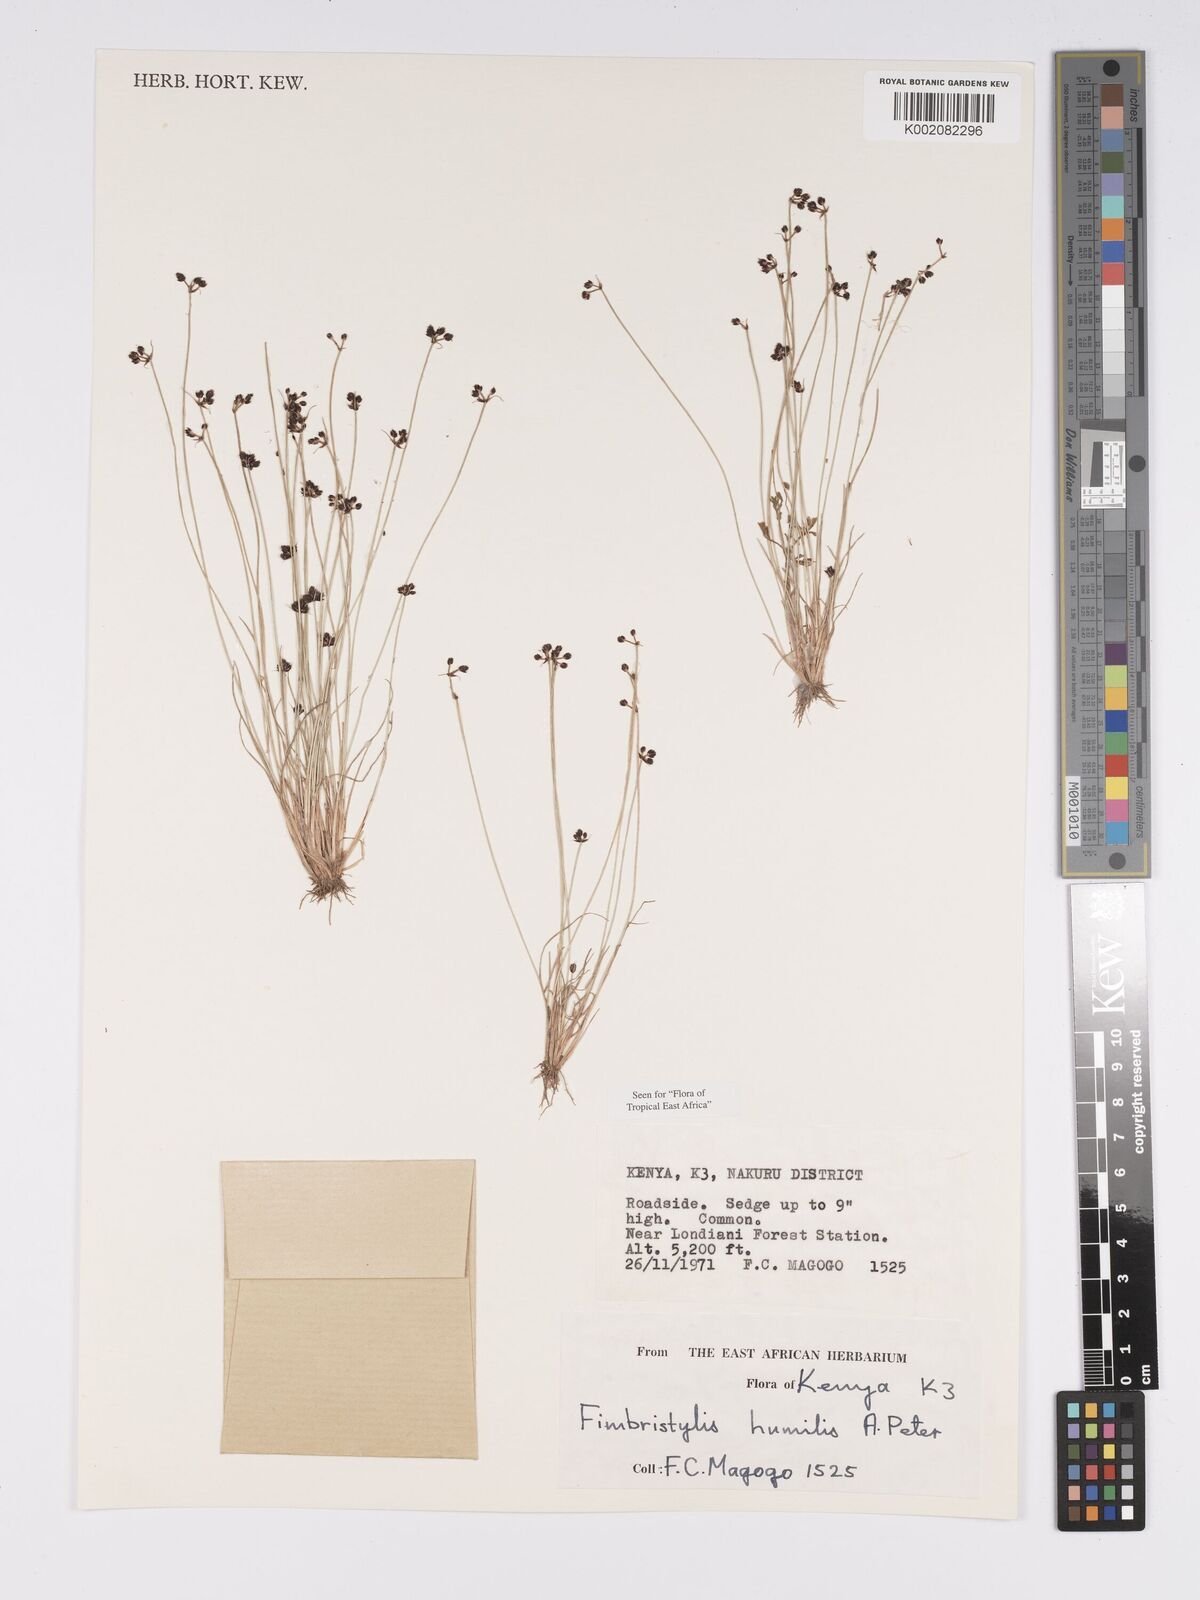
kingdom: Plantae
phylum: Tracheophyta
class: Liliopsida
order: Poales
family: Cyperaceae
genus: Bulbostylis
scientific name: Bulbostylis schimperiana
